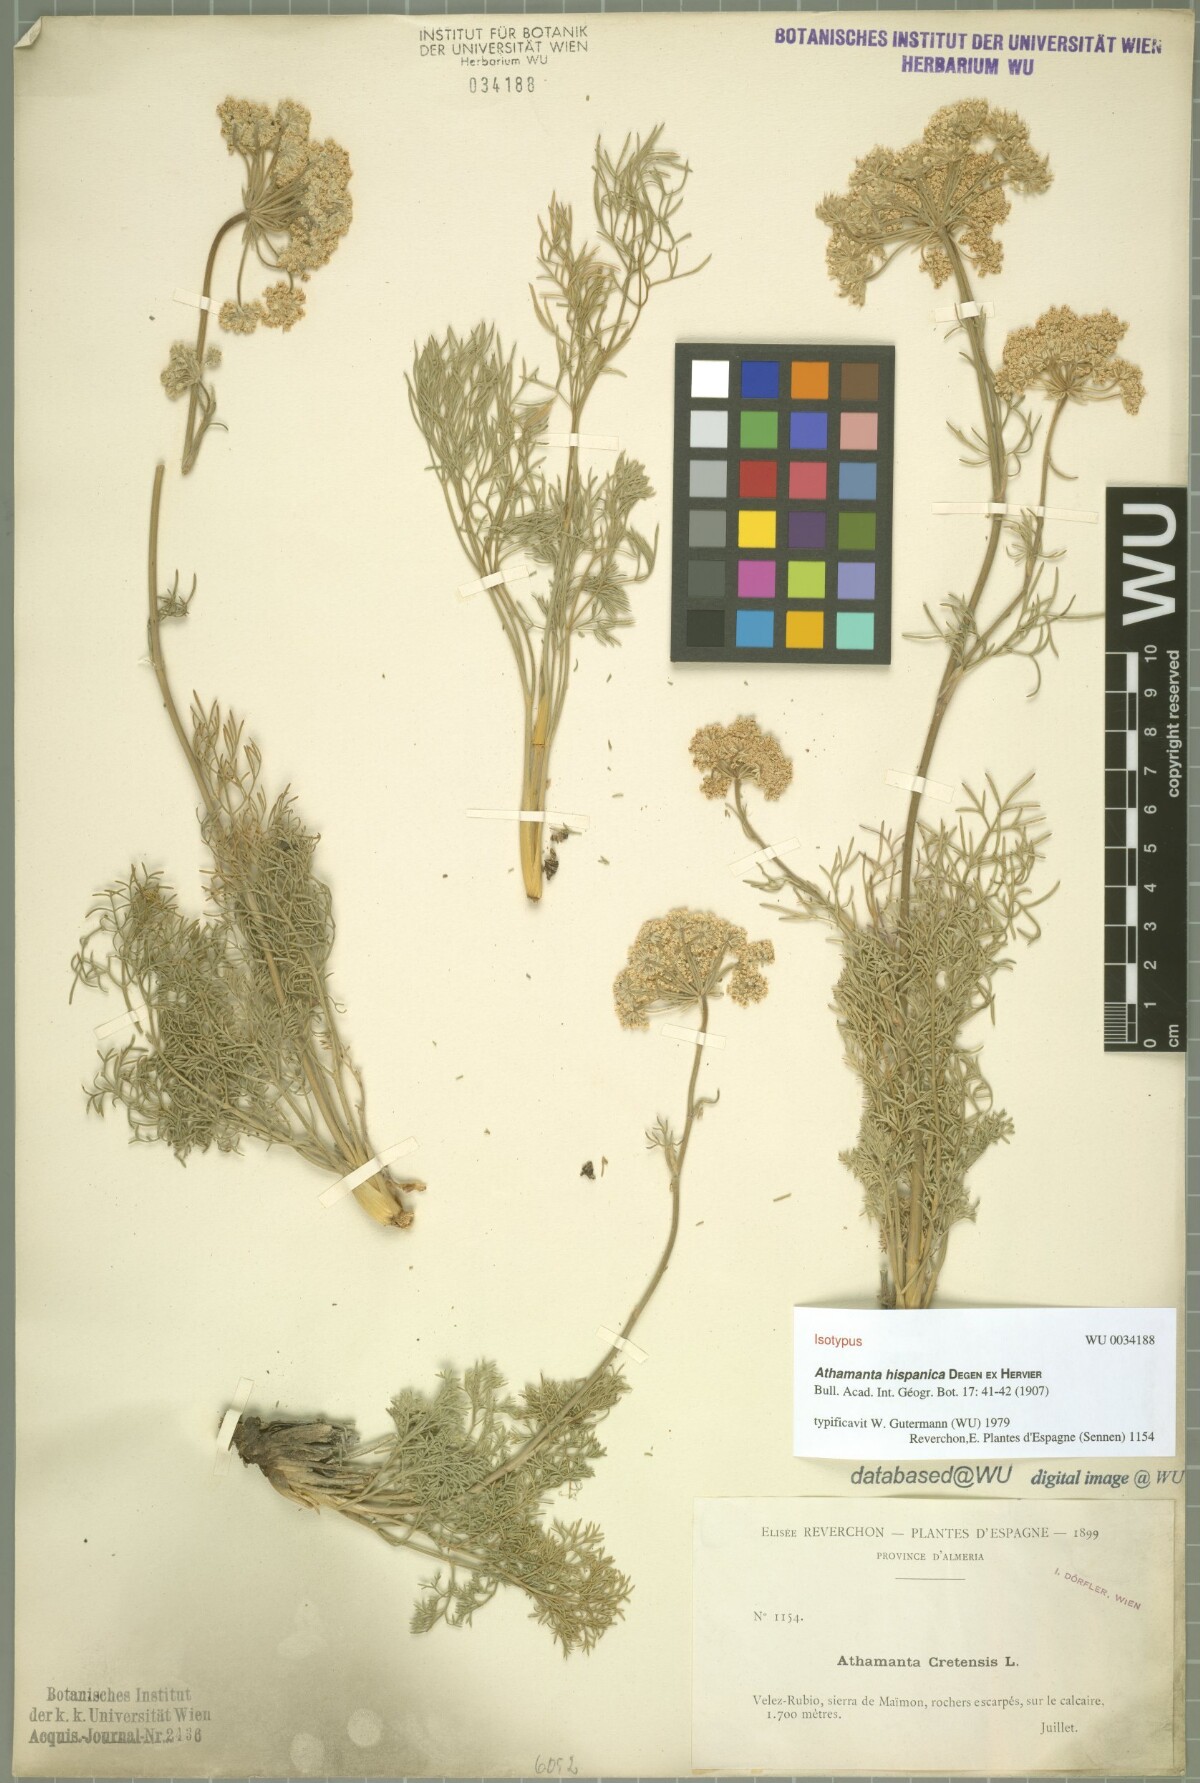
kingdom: Plantae
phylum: Tracheophyta
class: Magnoliopsida
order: Apiales
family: Apiaceae
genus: Athamanta
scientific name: Athamanta hispanica
